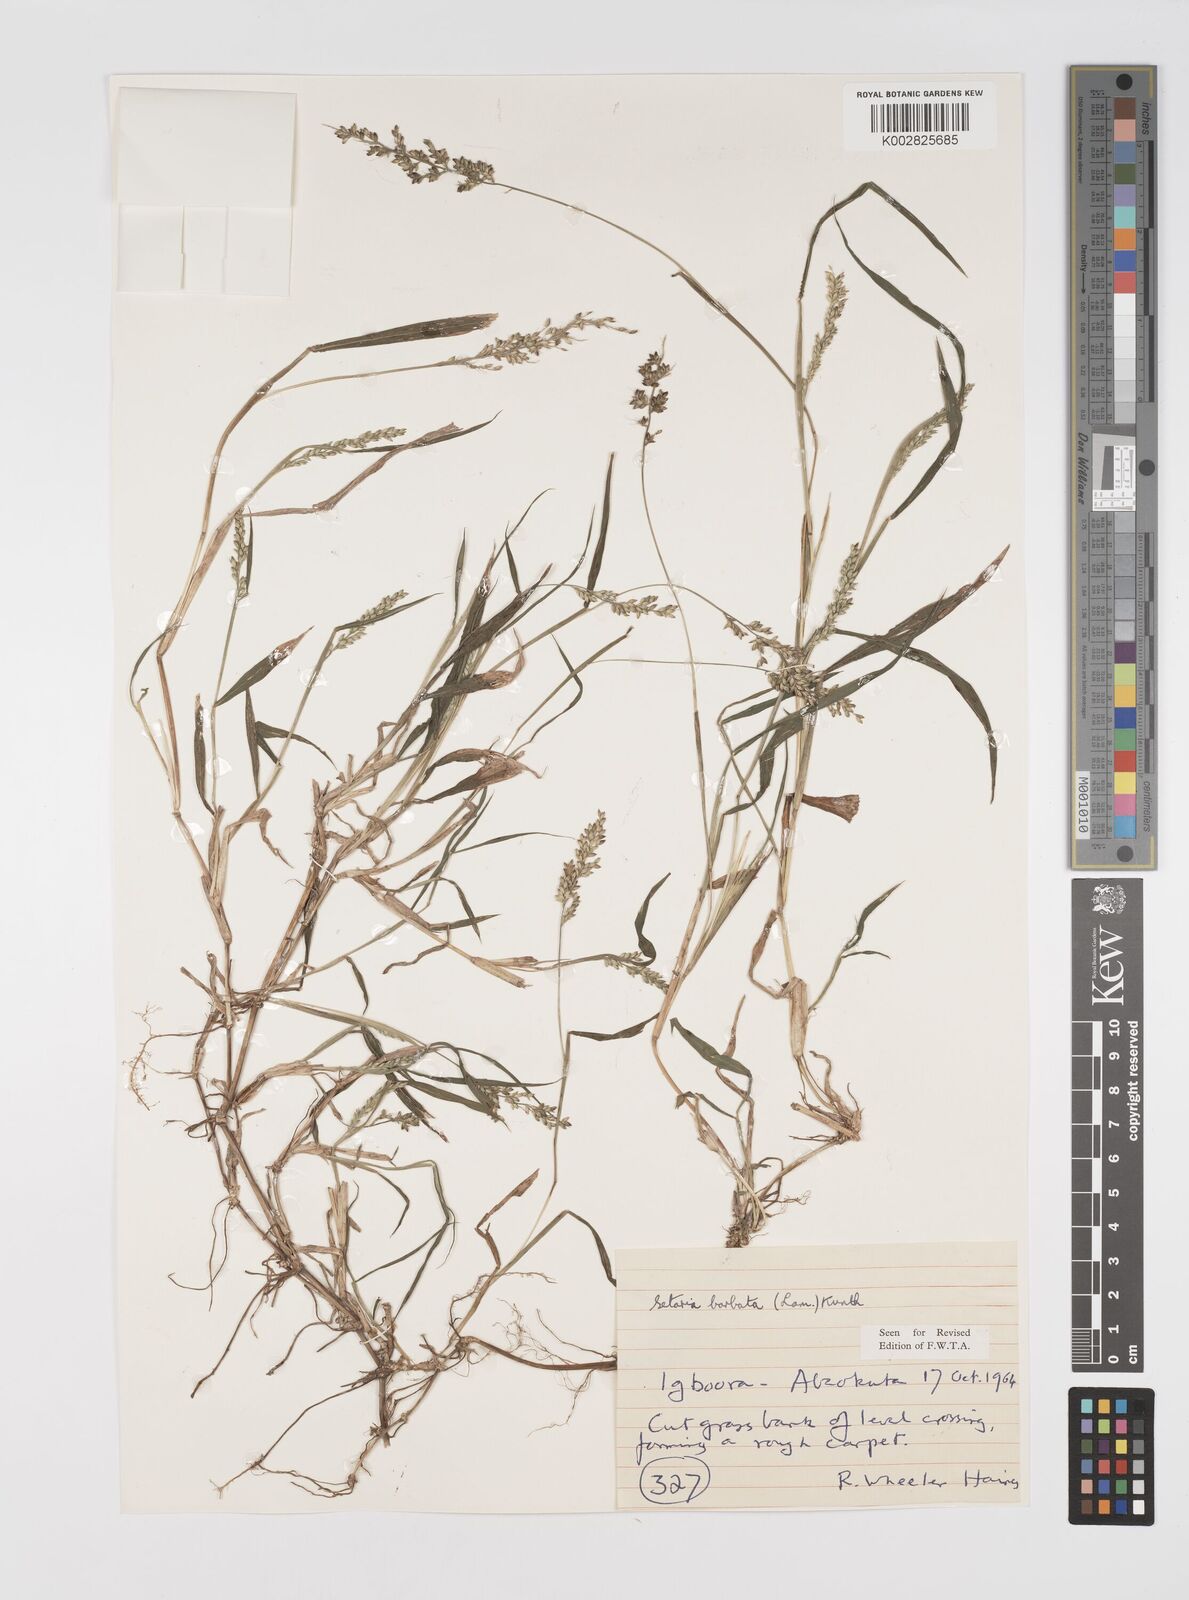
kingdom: Plantae
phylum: Tracheophyta
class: Liliopsida
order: Poales
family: Poaceae
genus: Setaria
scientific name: Setaria barbata
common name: East indian bristlegrass
